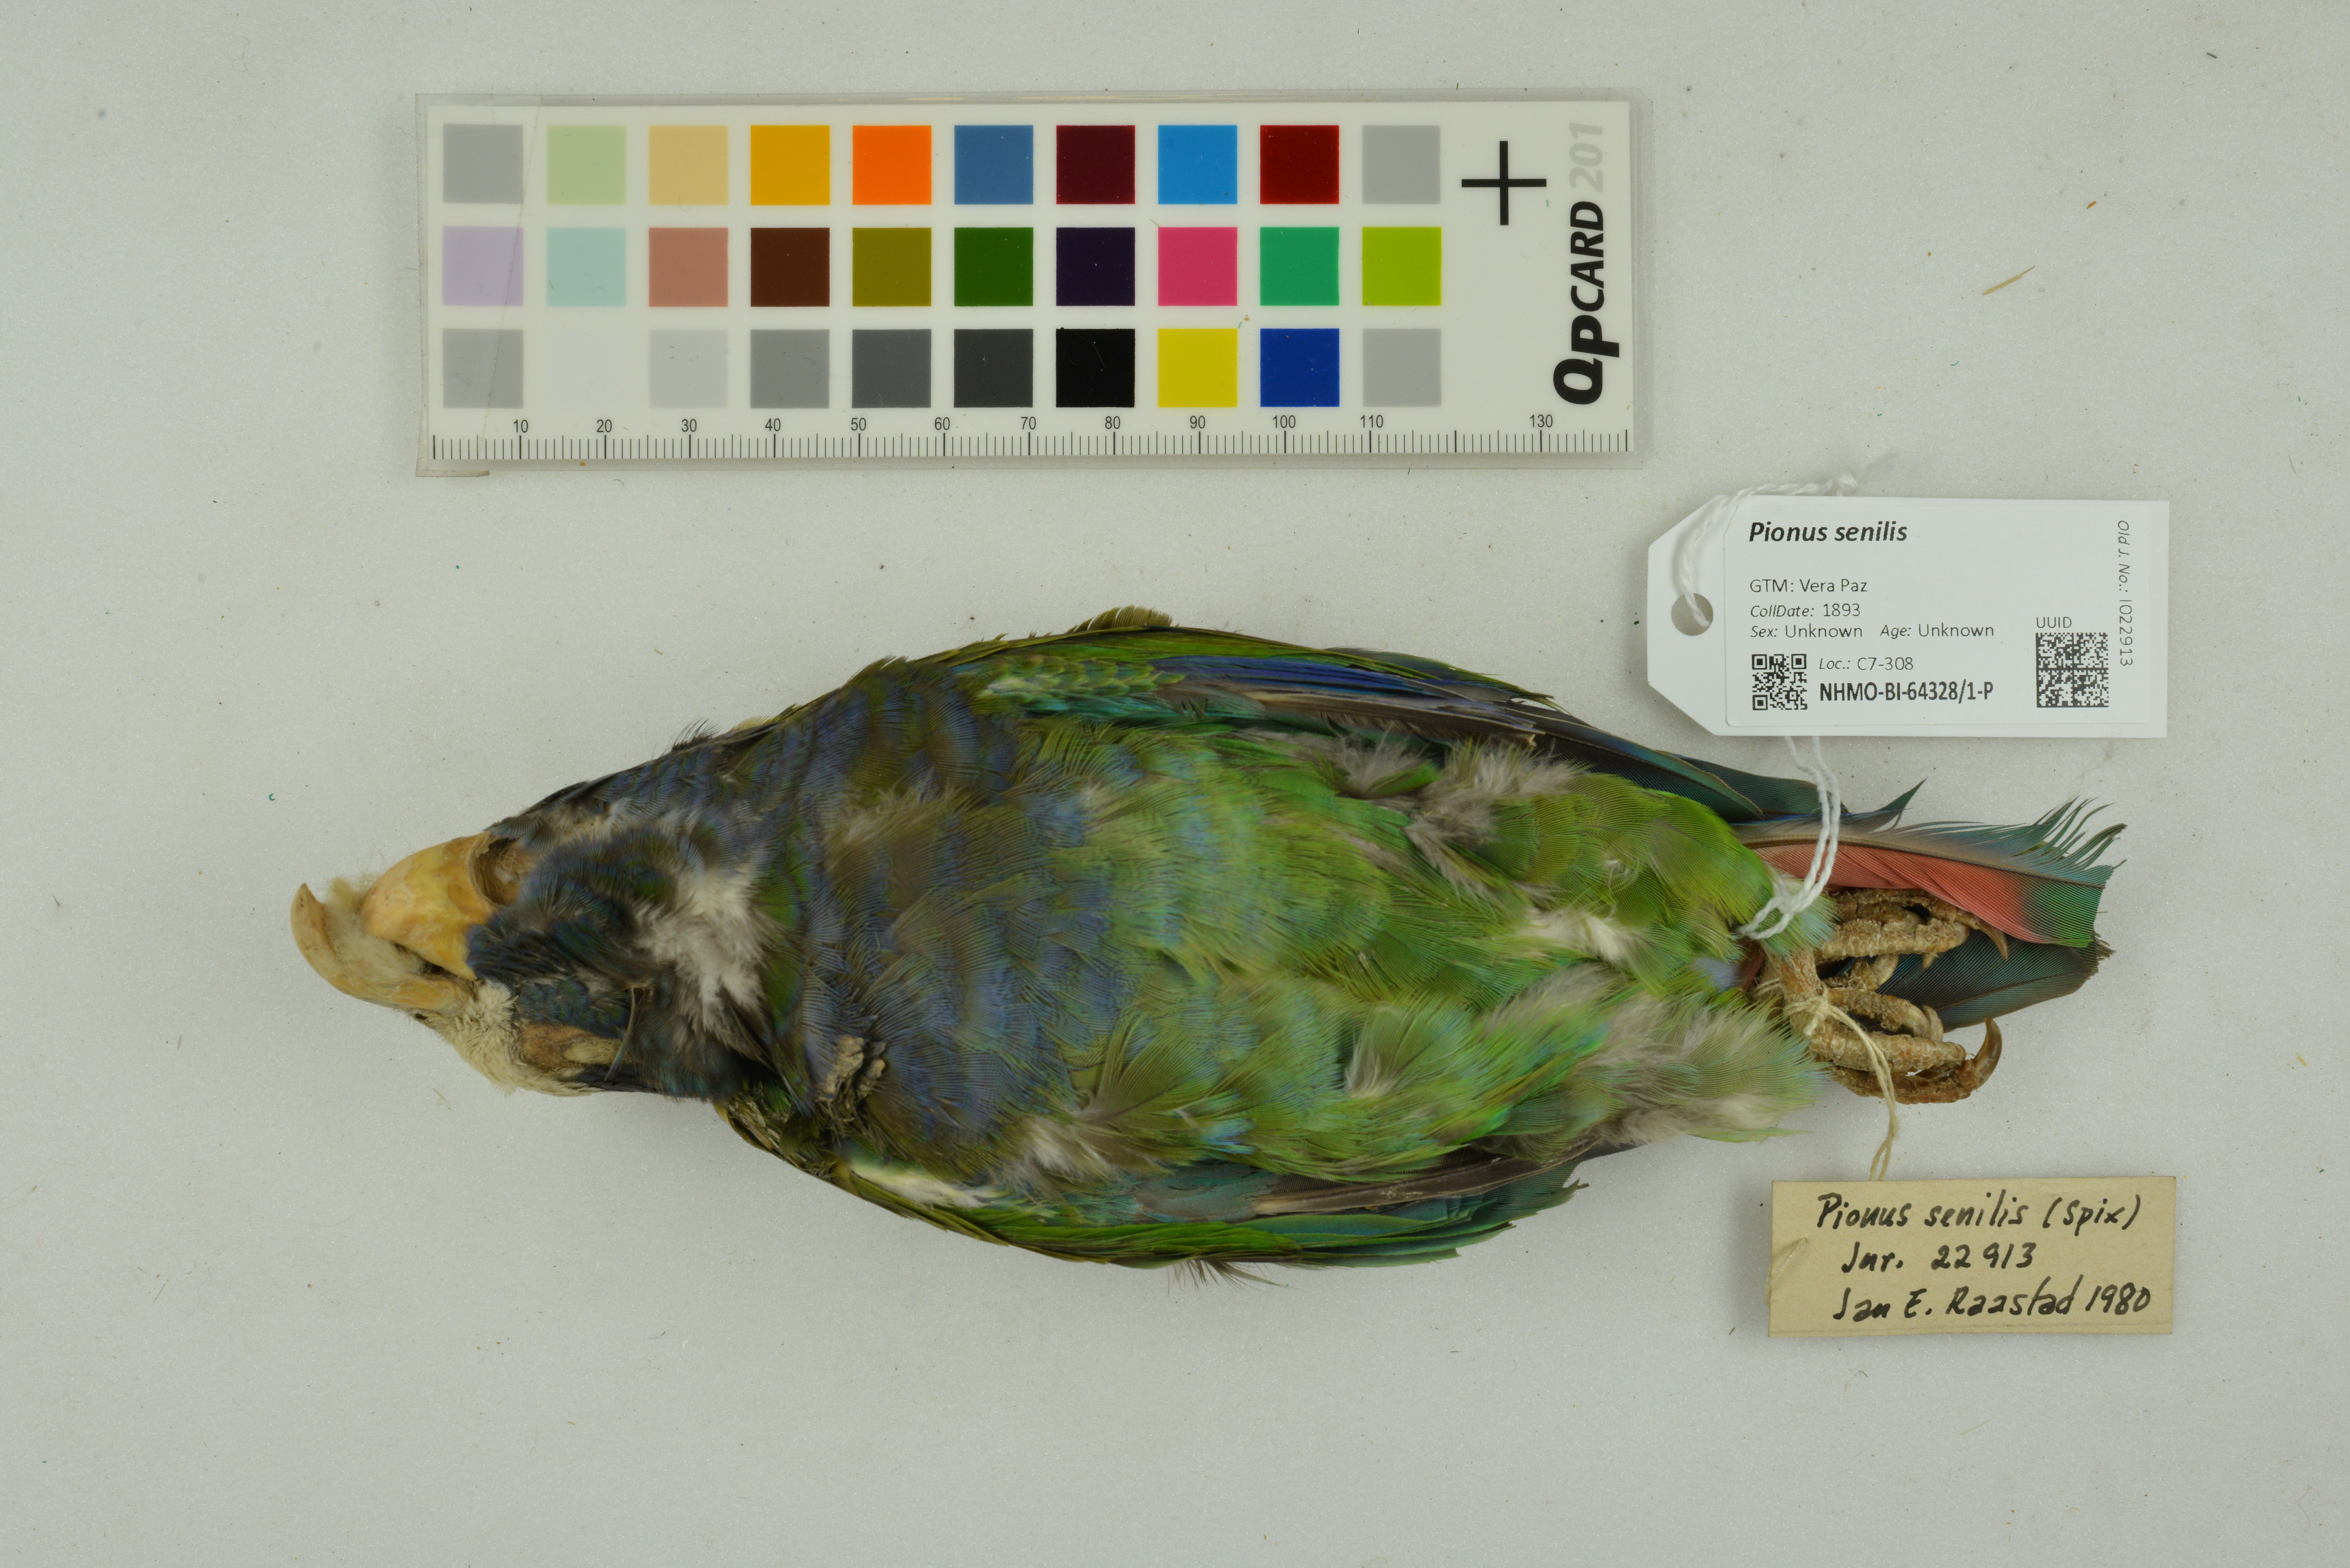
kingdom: Animalia
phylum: Chordata
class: Aves
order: Psittaciformes
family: Psittacidae
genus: Pionus
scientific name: Pionus senilis
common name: White-crowned parrot
